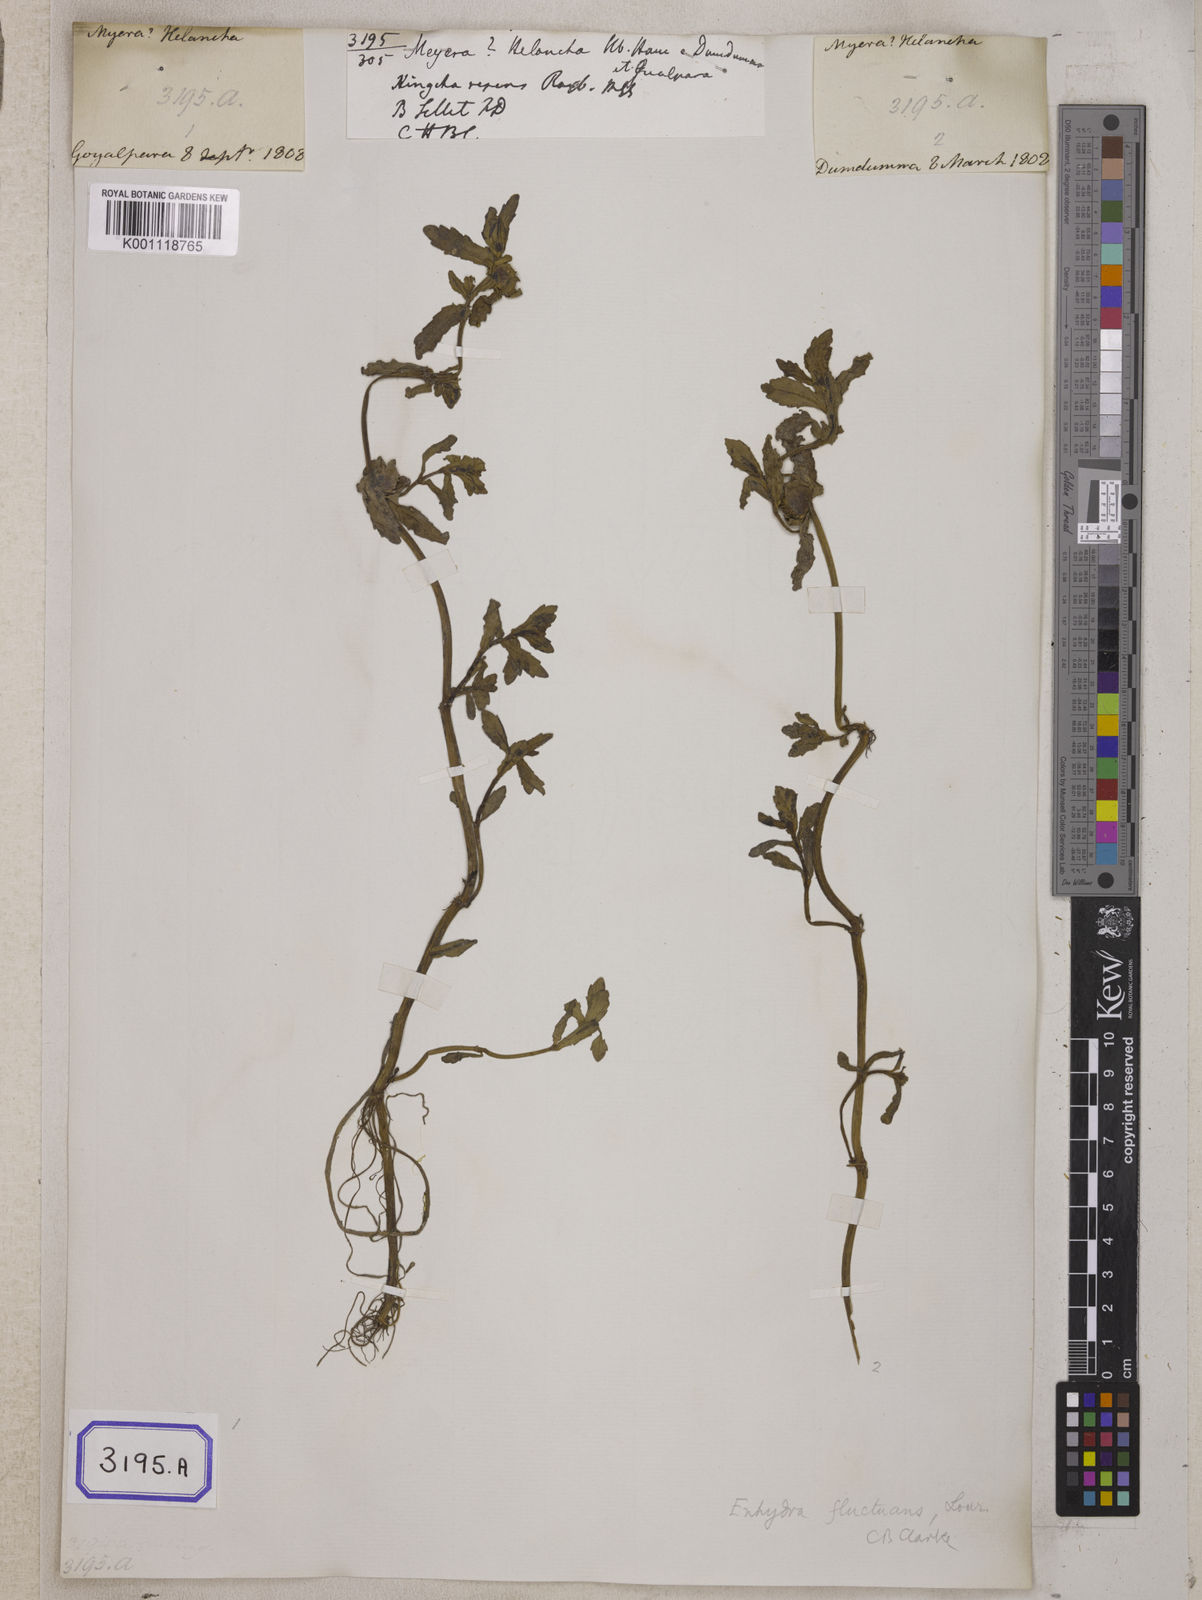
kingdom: Plantae
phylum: Tracheophyta
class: Magnoliopsida
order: Asterales
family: Asteraceae
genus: Enydra
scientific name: Enydra fluctuans
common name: Buffalo spinach
